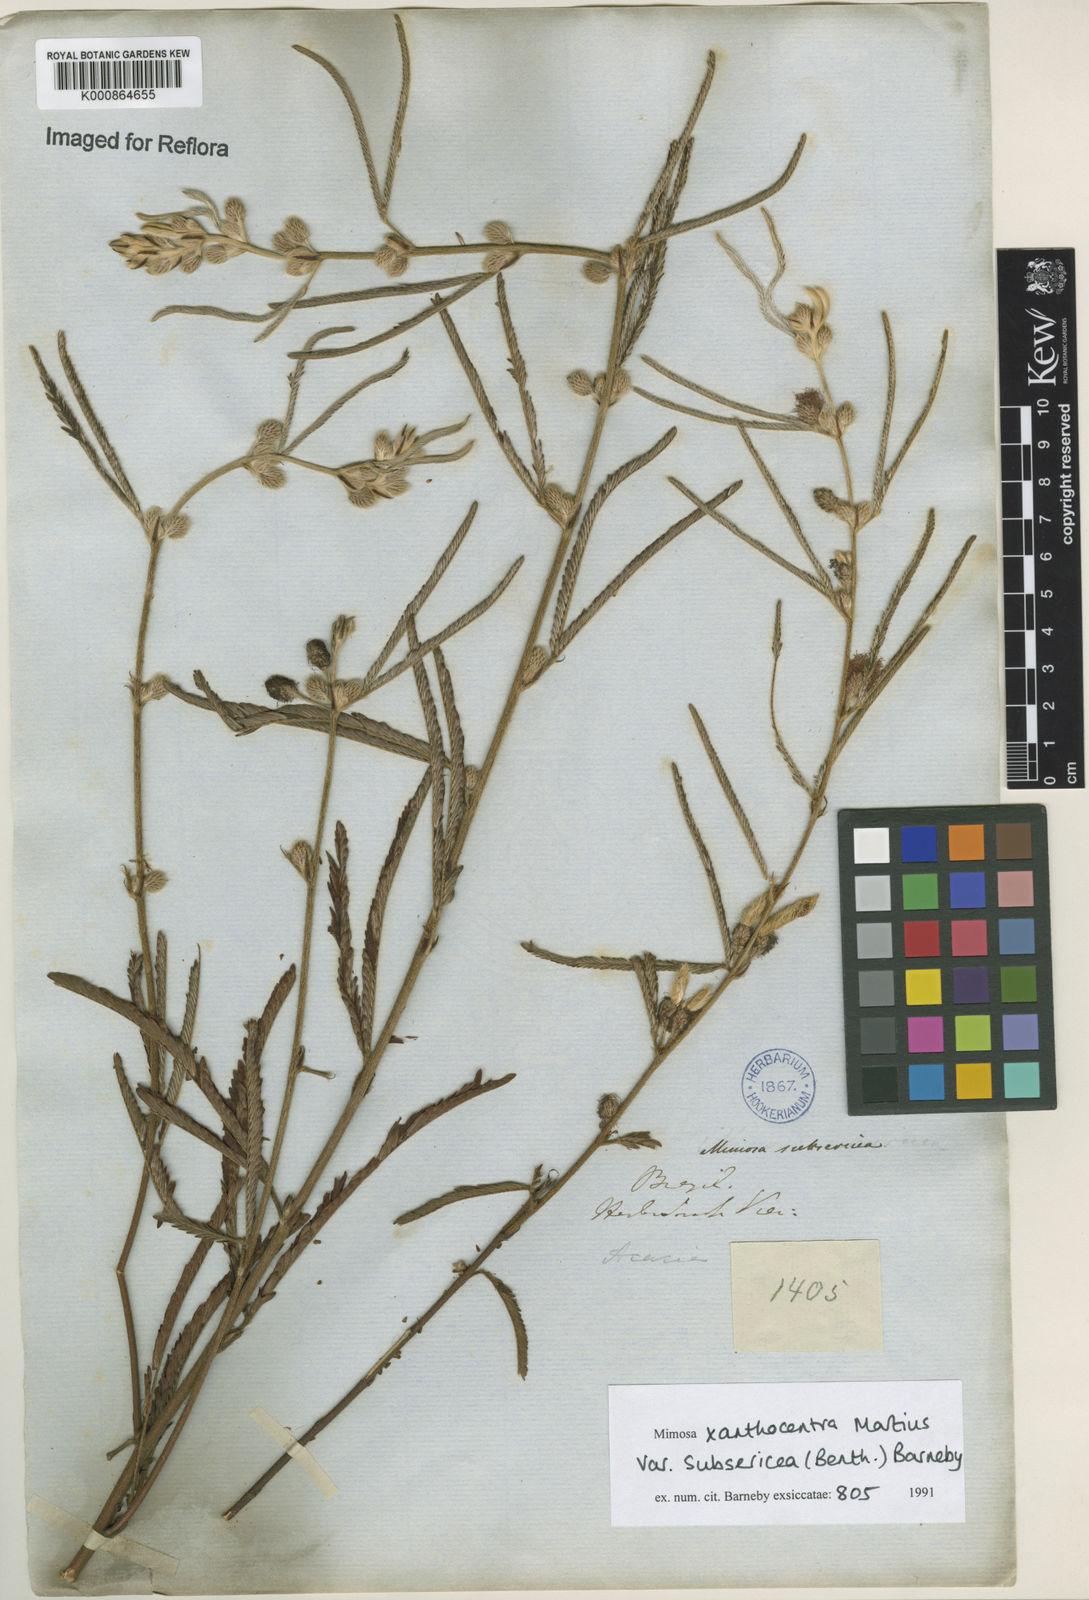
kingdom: Plantae
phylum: Tracheophyta
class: Magnoliopsida
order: Fabales
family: Fabaceae
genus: Mimosa
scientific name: Mimosa xanthocentra
